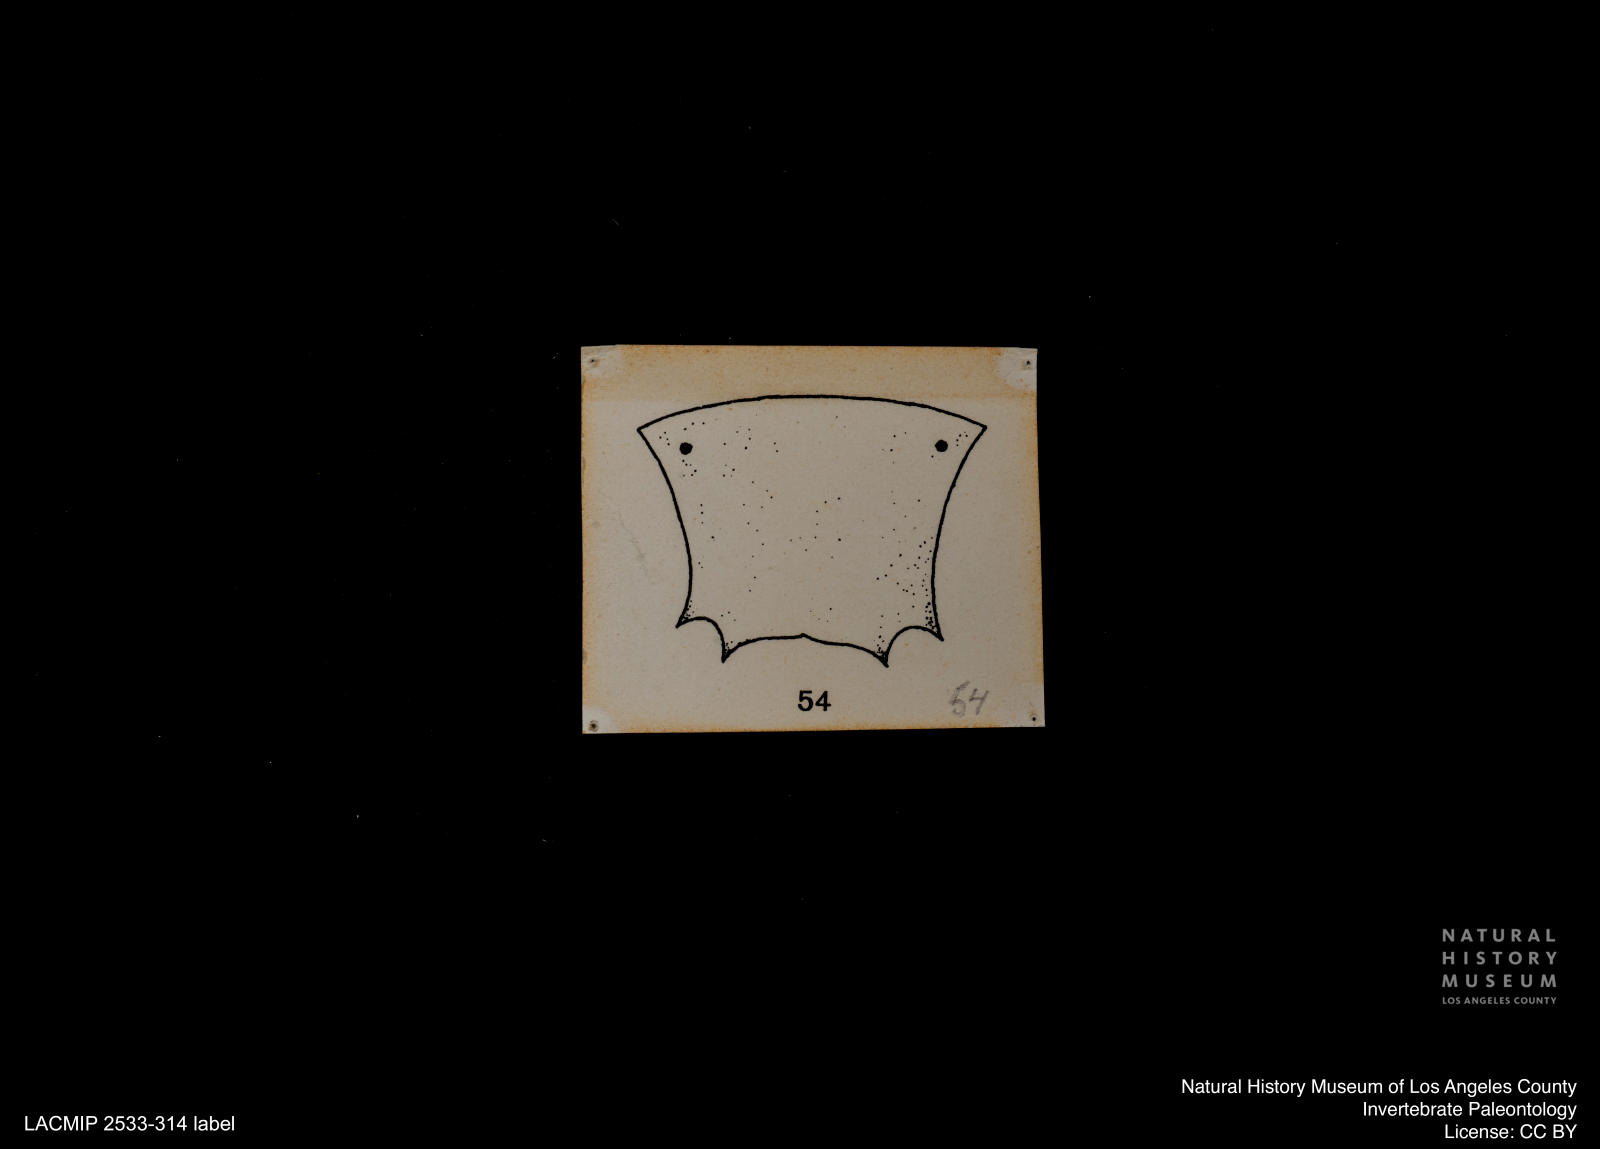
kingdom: Animalia
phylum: Arthropoda
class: Insecta
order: Diptera
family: Ceratopogonidae
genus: Ceratopogon
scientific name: Ceratopogon
